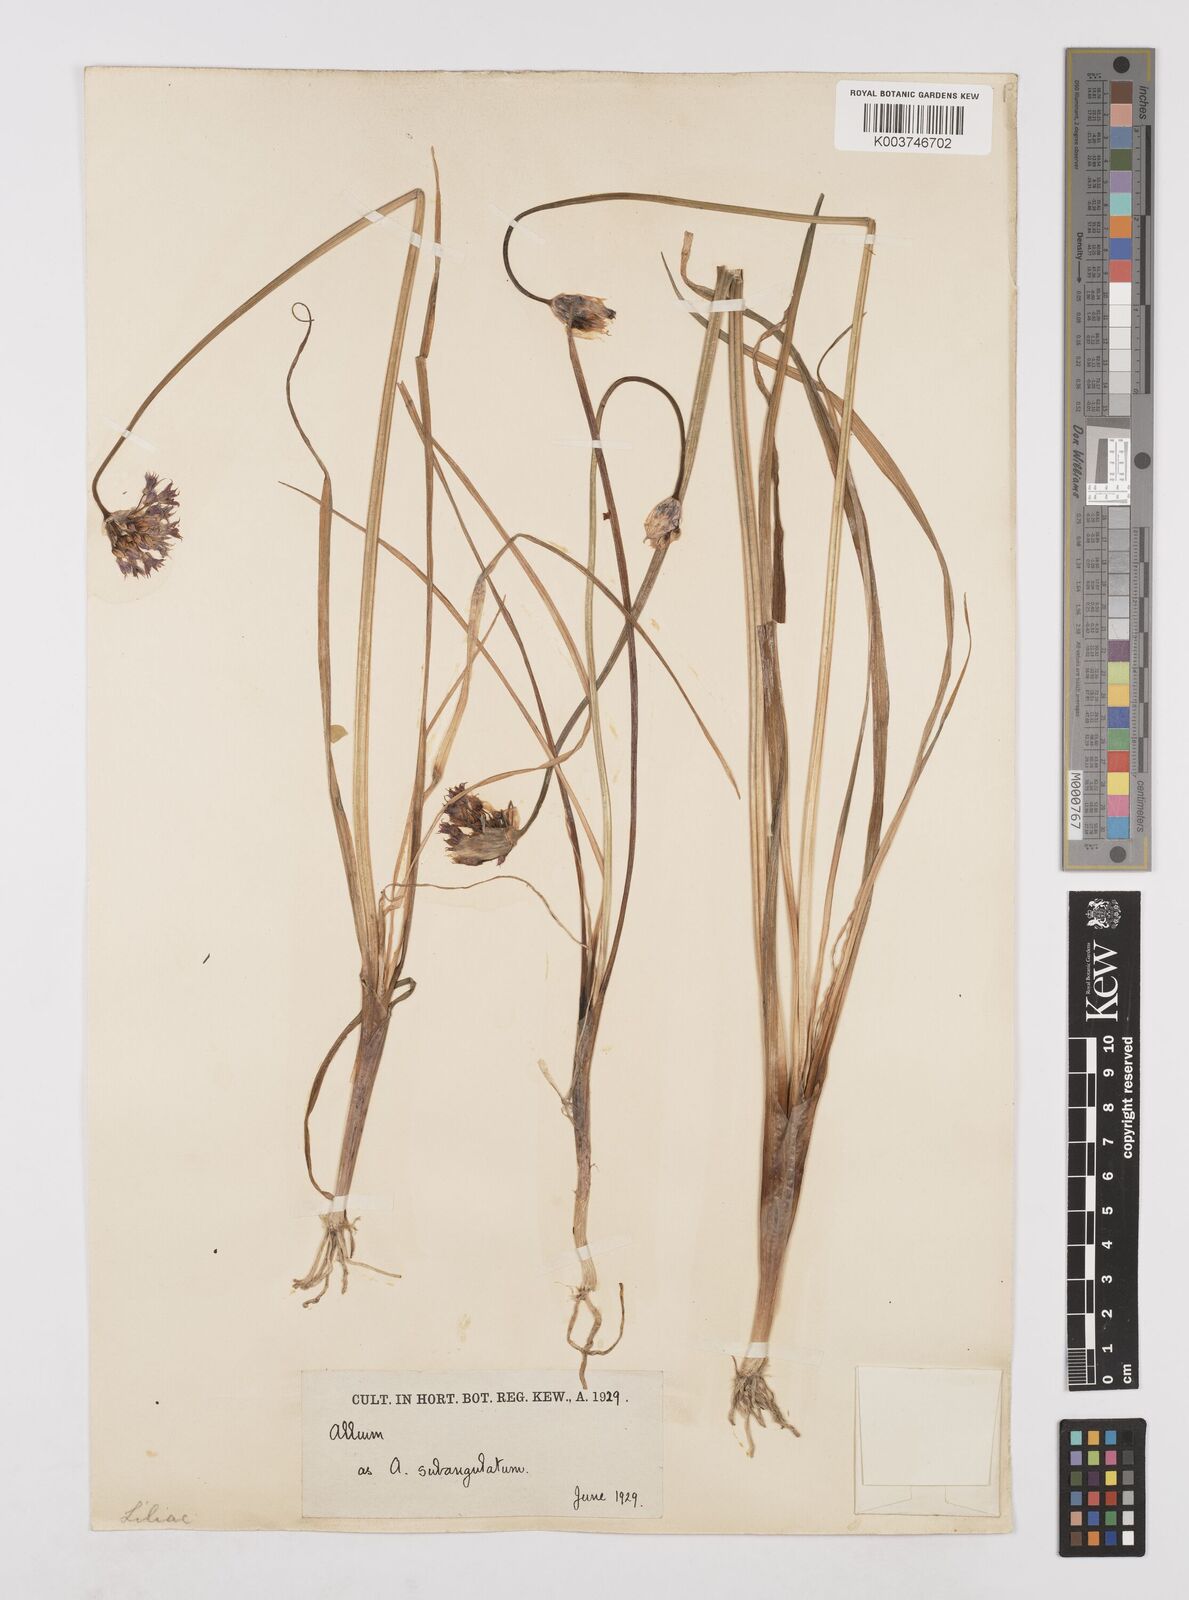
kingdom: Plantae
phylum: Tracheophyta
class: Liliopsida
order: Asparagales
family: Amaryllidaceae
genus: Allium
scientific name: Allium farreri
